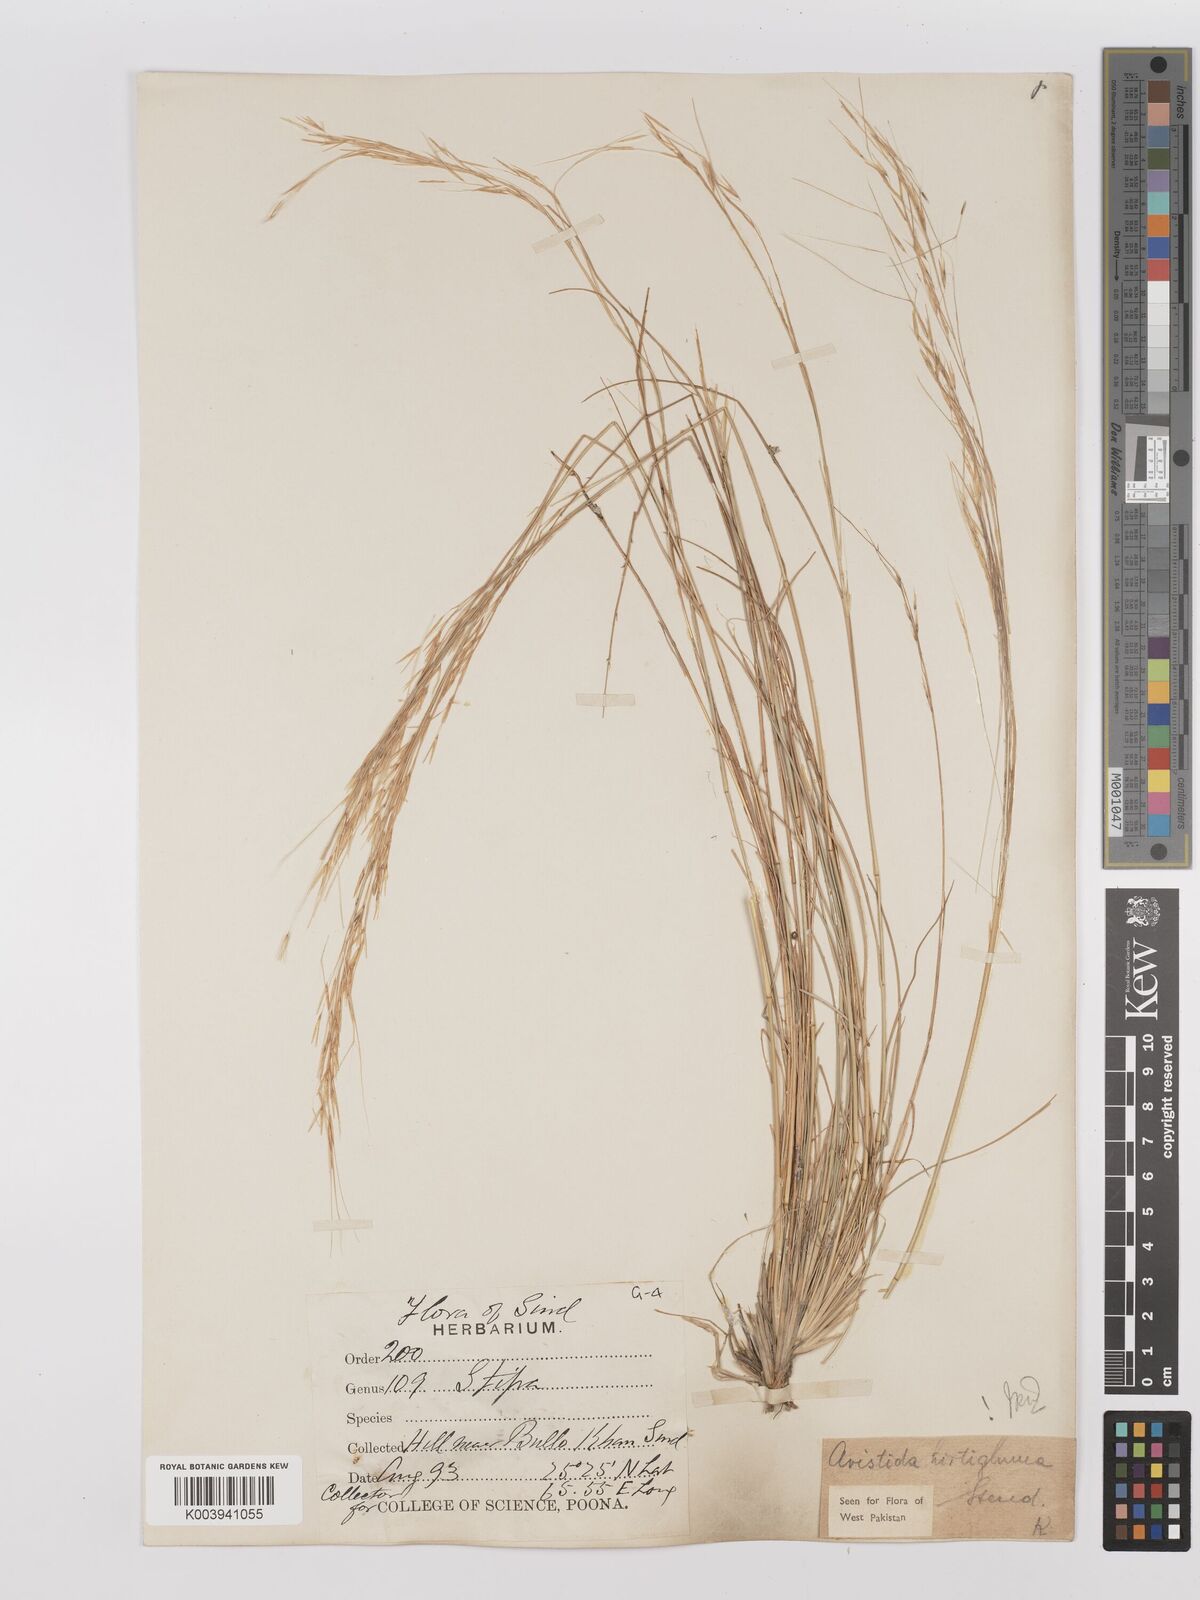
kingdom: Plantae
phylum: Tracheophyta
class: Liliopsida
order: Poales
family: Poaceae
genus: Stipagrostis
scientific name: Stipagrostis hirtigluma
